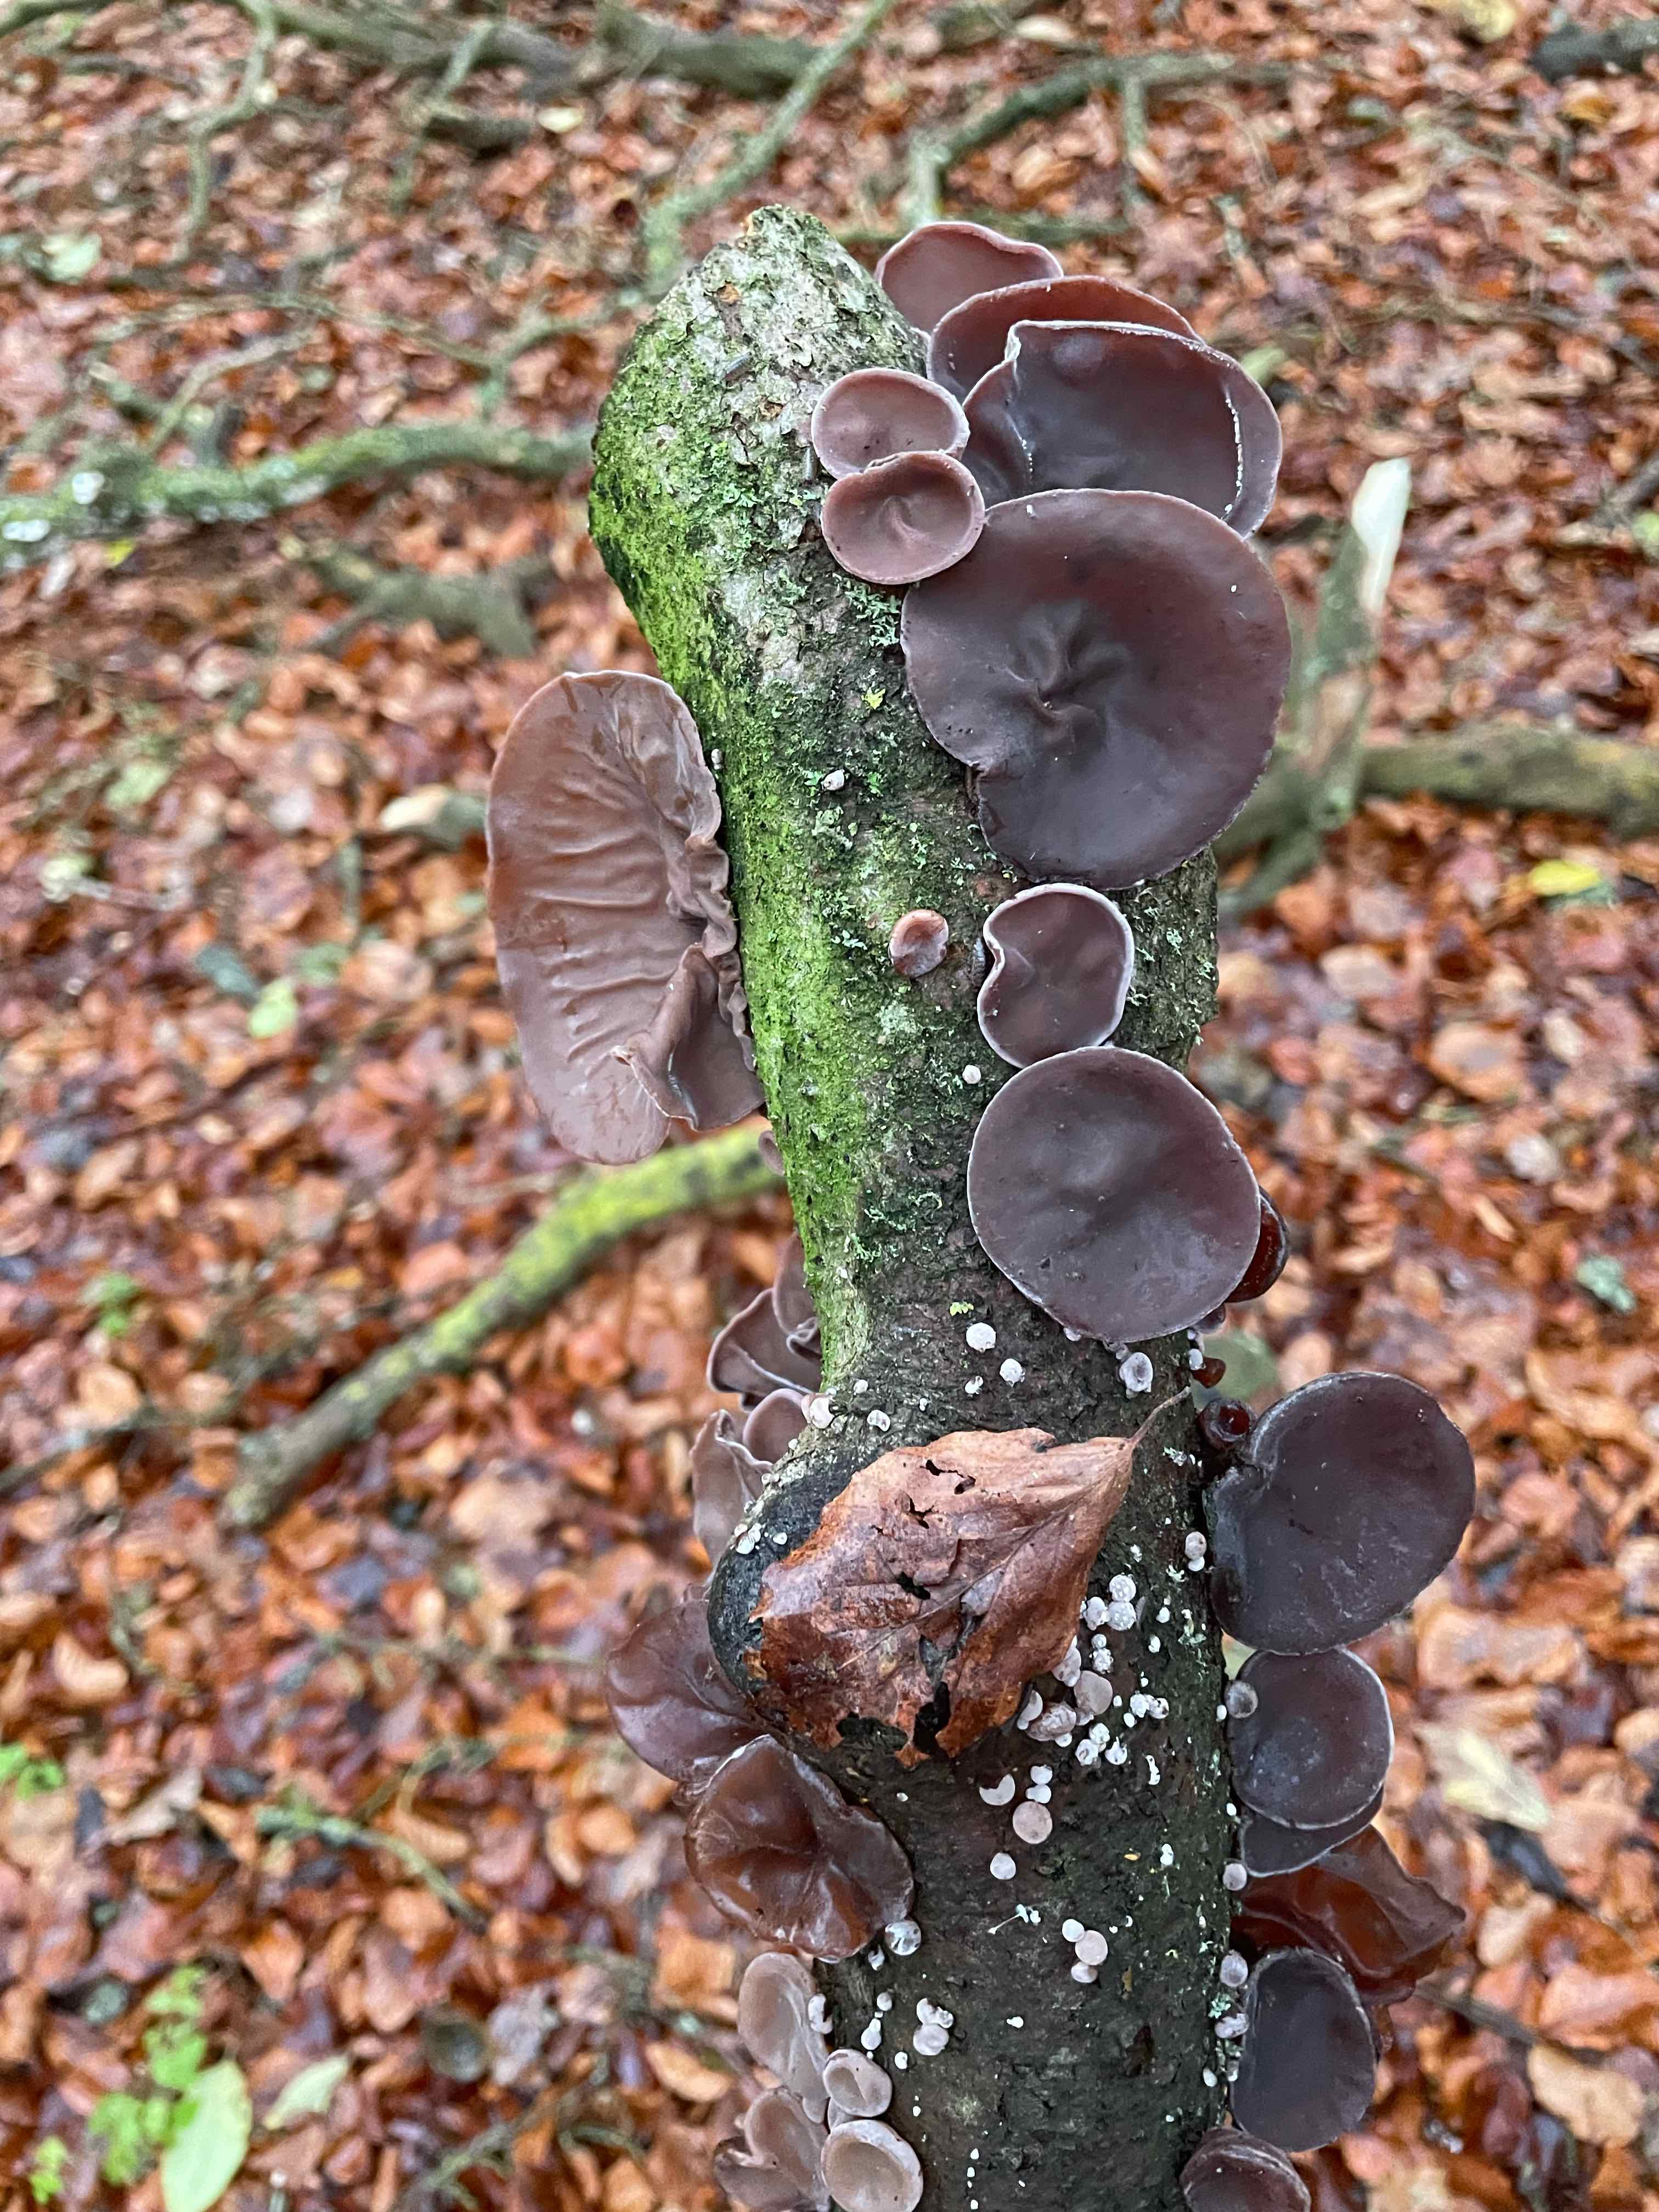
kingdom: Fungi
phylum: Basidiomycota
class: Agaricomycetes
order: Auriculariales
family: Auriculariaceae
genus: Auricularia
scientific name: Auricularia auricula-judae
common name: almindelig judasøre
